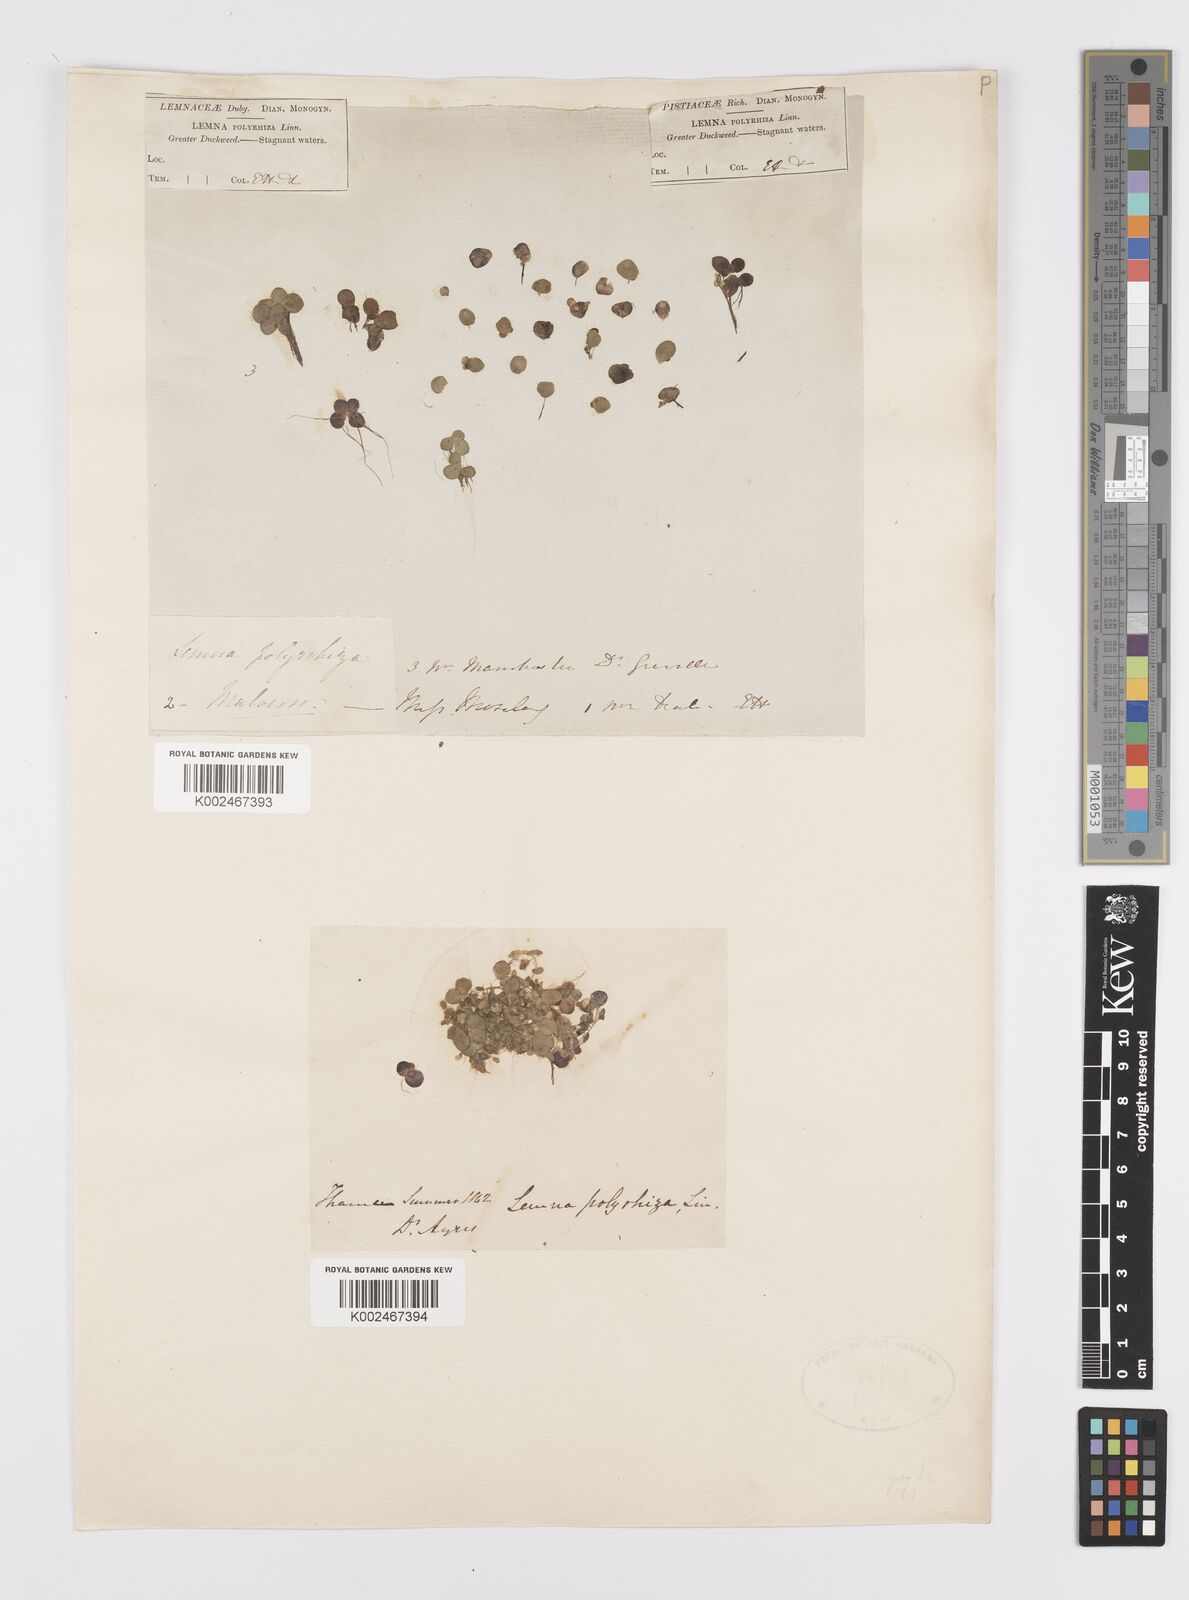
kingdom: Plantae
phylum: Tracheophyta
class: Liliopsida
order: Alismatales
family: Araceae
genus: Spirodela
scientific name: Spirodela polyrhiza
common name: Great duckweed
